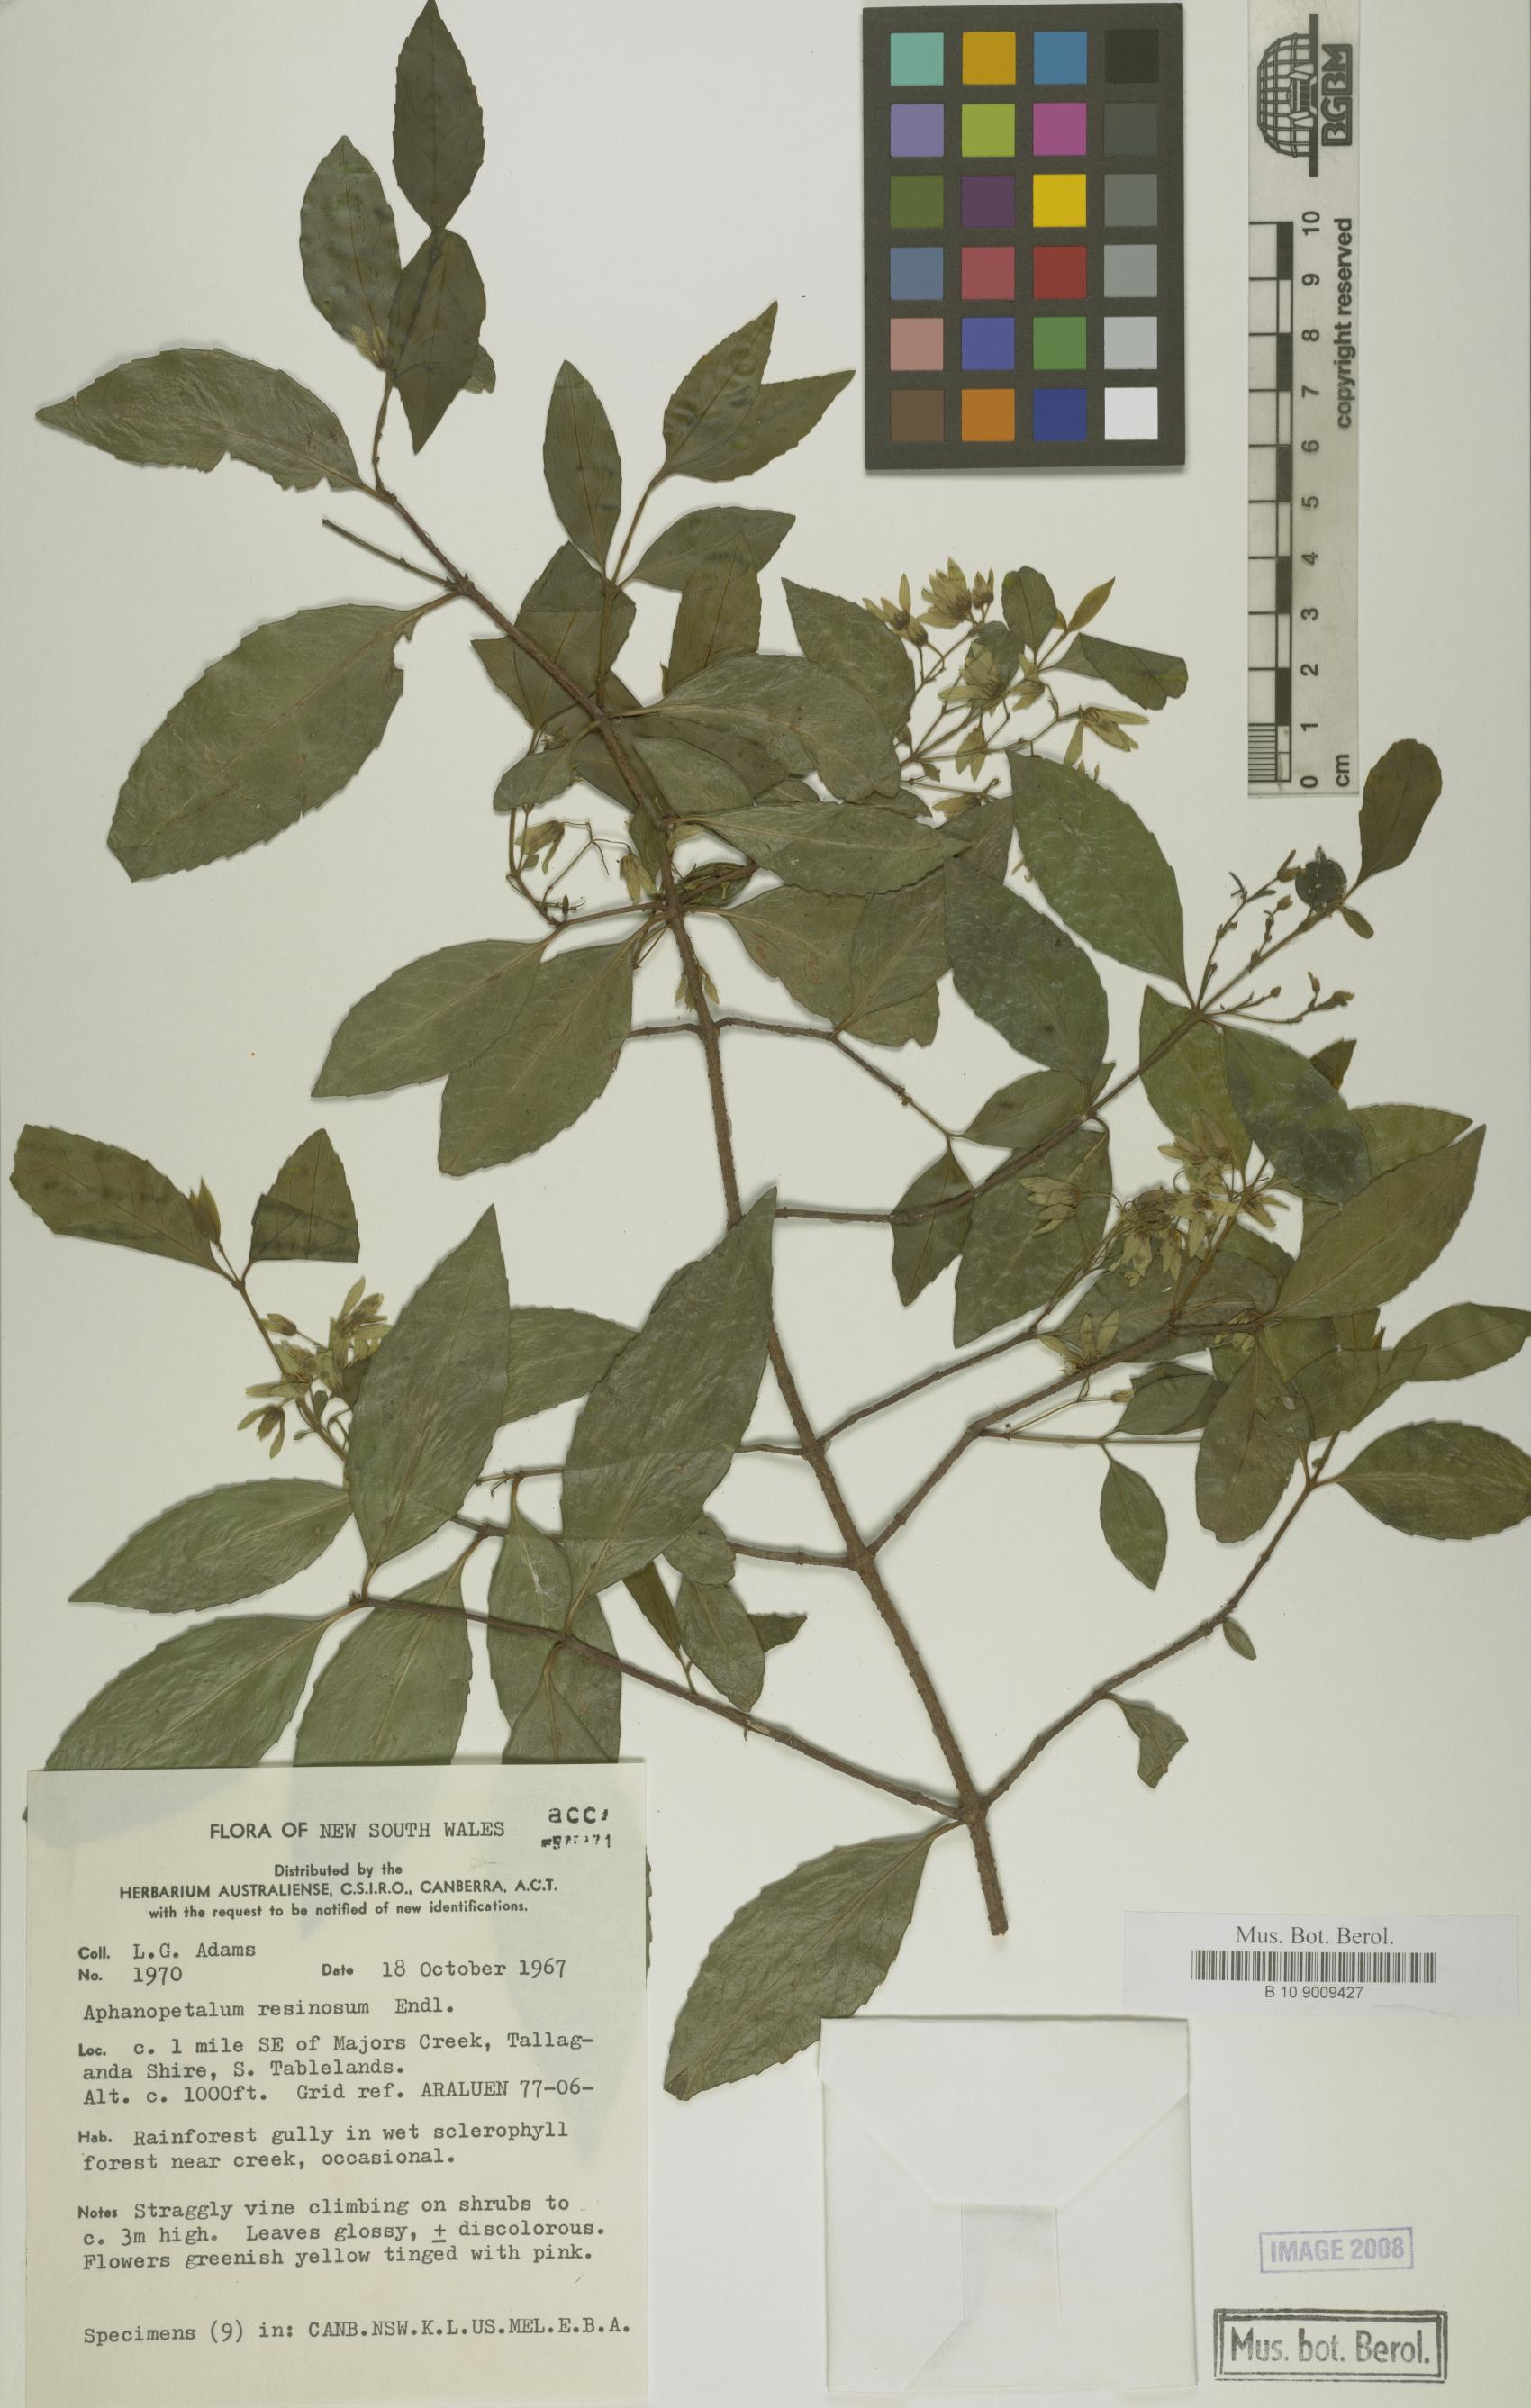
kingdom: Plantae
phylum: Tracheophyta
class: Magnoliopsida
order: Saxifragales
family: Aphanopetalaceae
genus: Aphanopetalum
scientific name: Aphanopetalum resinosum
